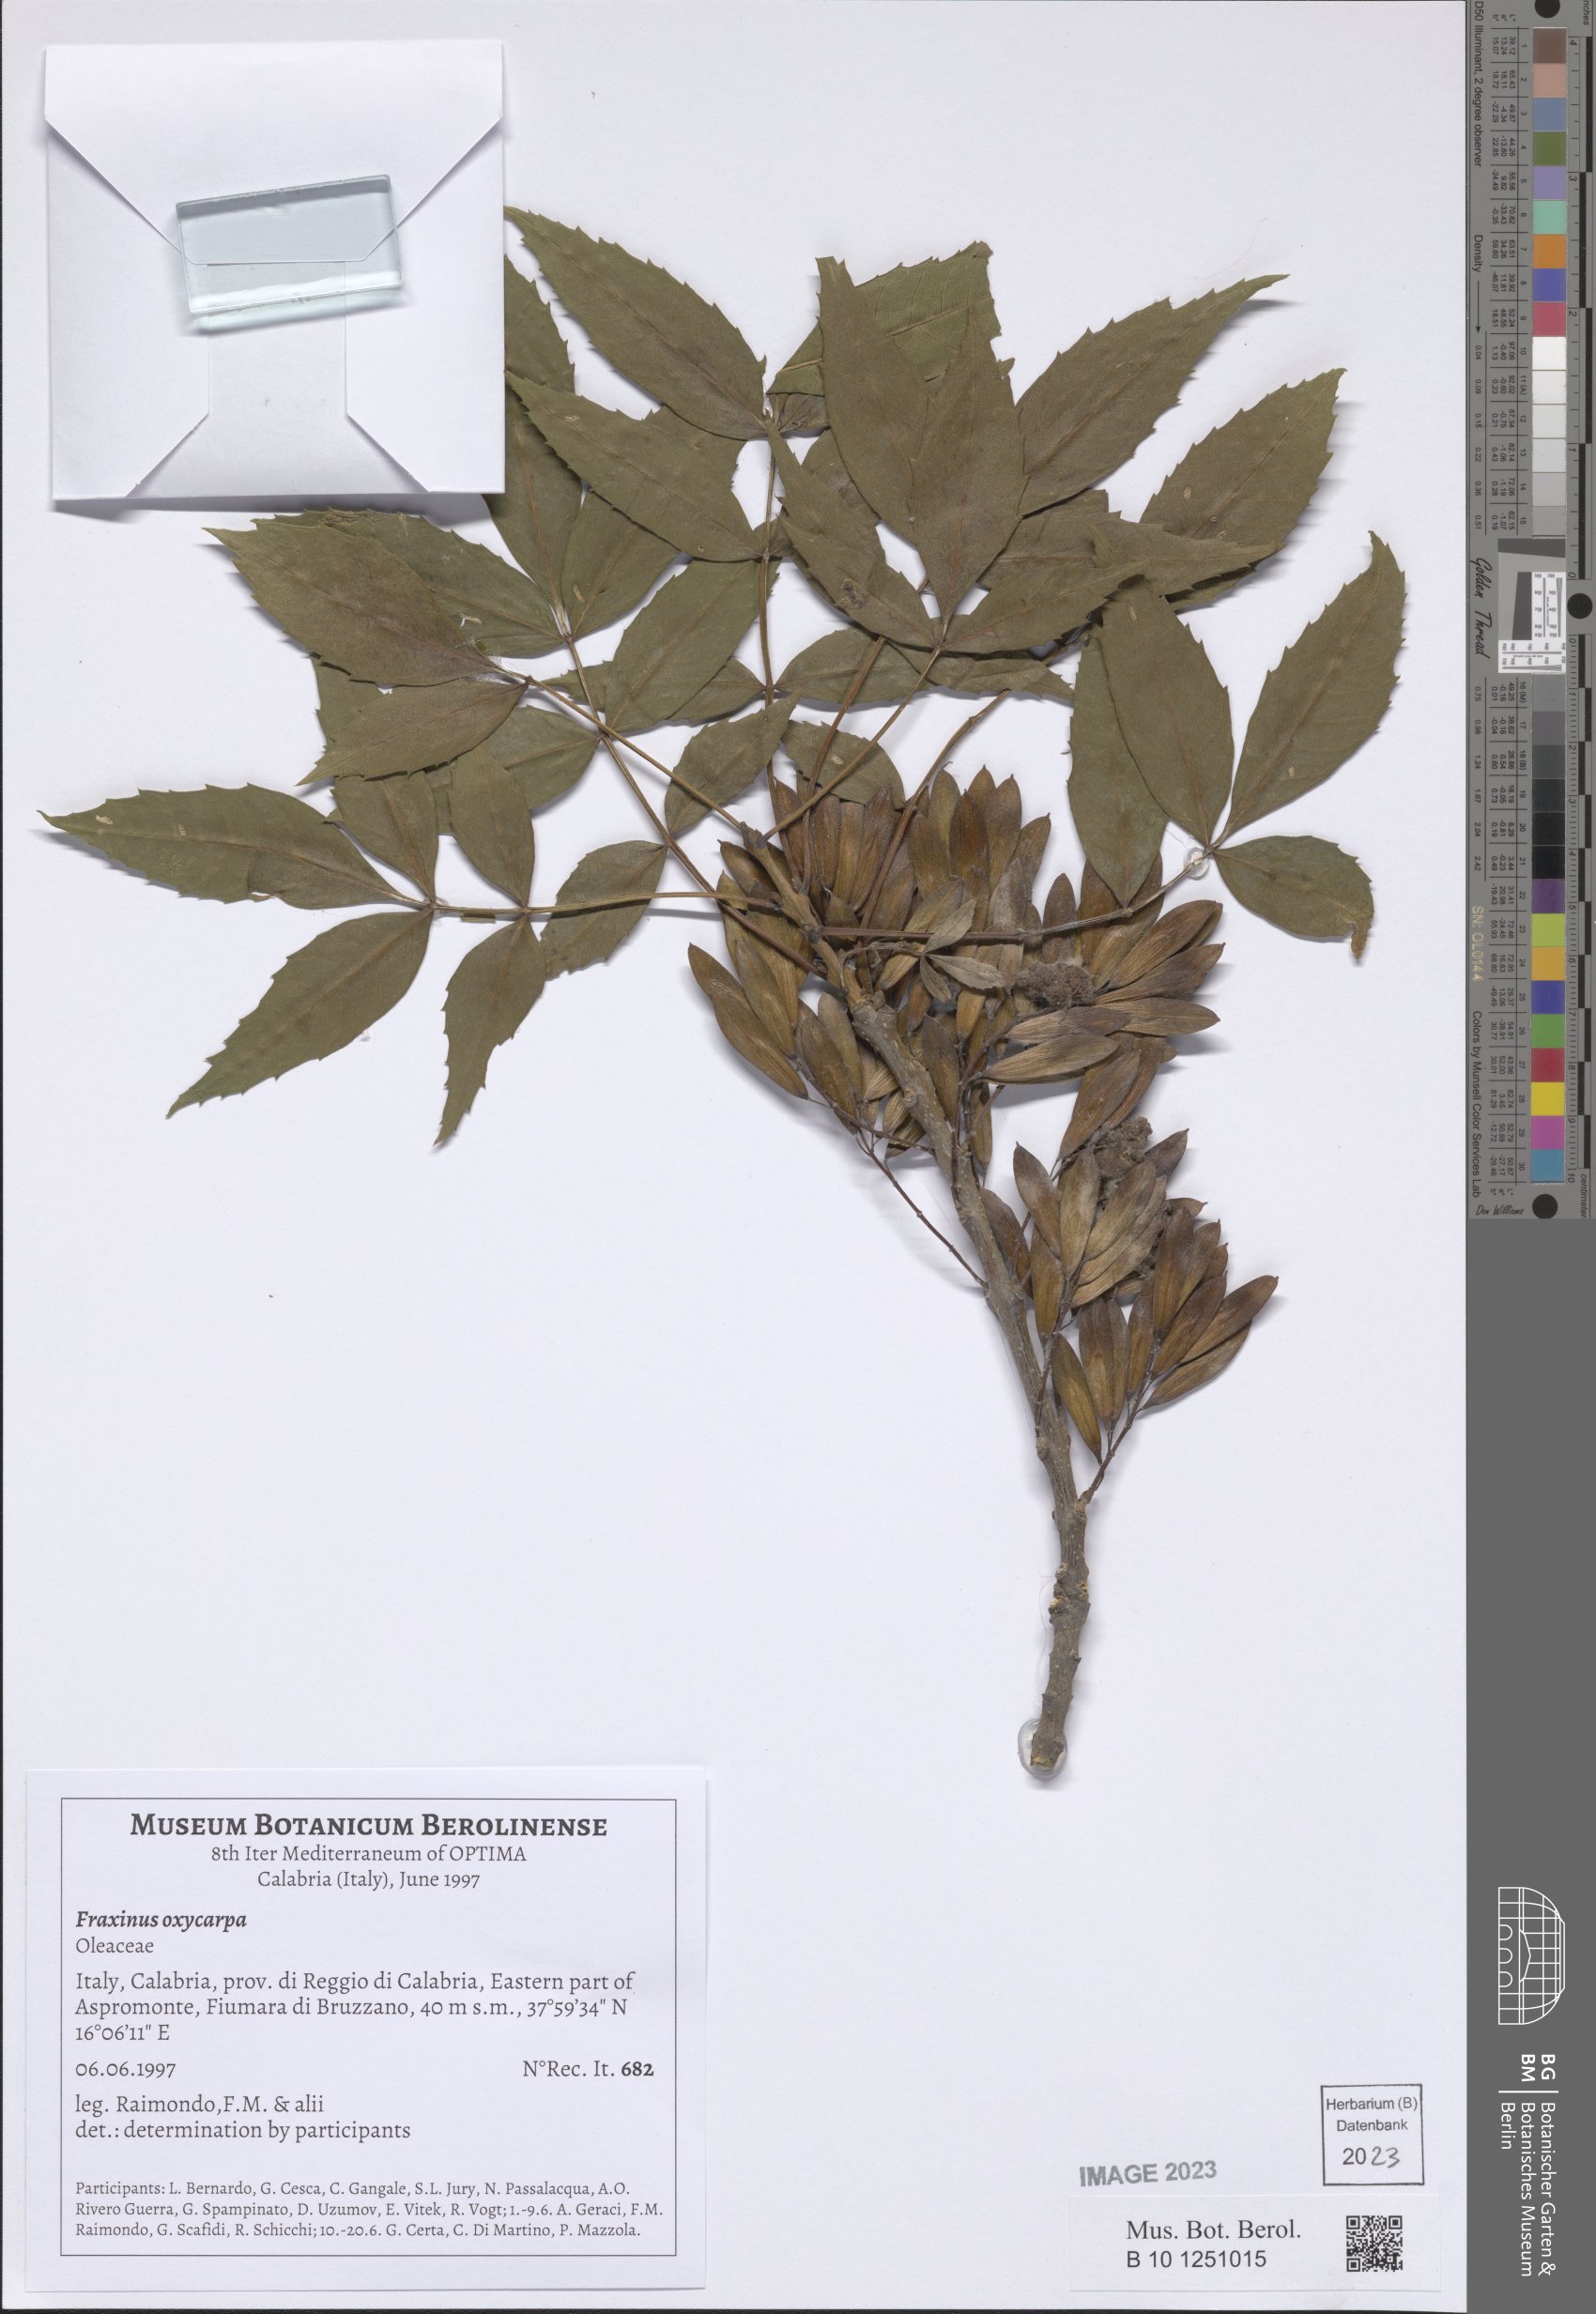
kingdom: Plantae
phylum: Tracheophyta
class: Magnoliopsida
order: Lamiales
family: Oleaceae
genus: Fraxinus
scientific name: Fraxinus angustifolia
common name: Narrow-leafed ash
